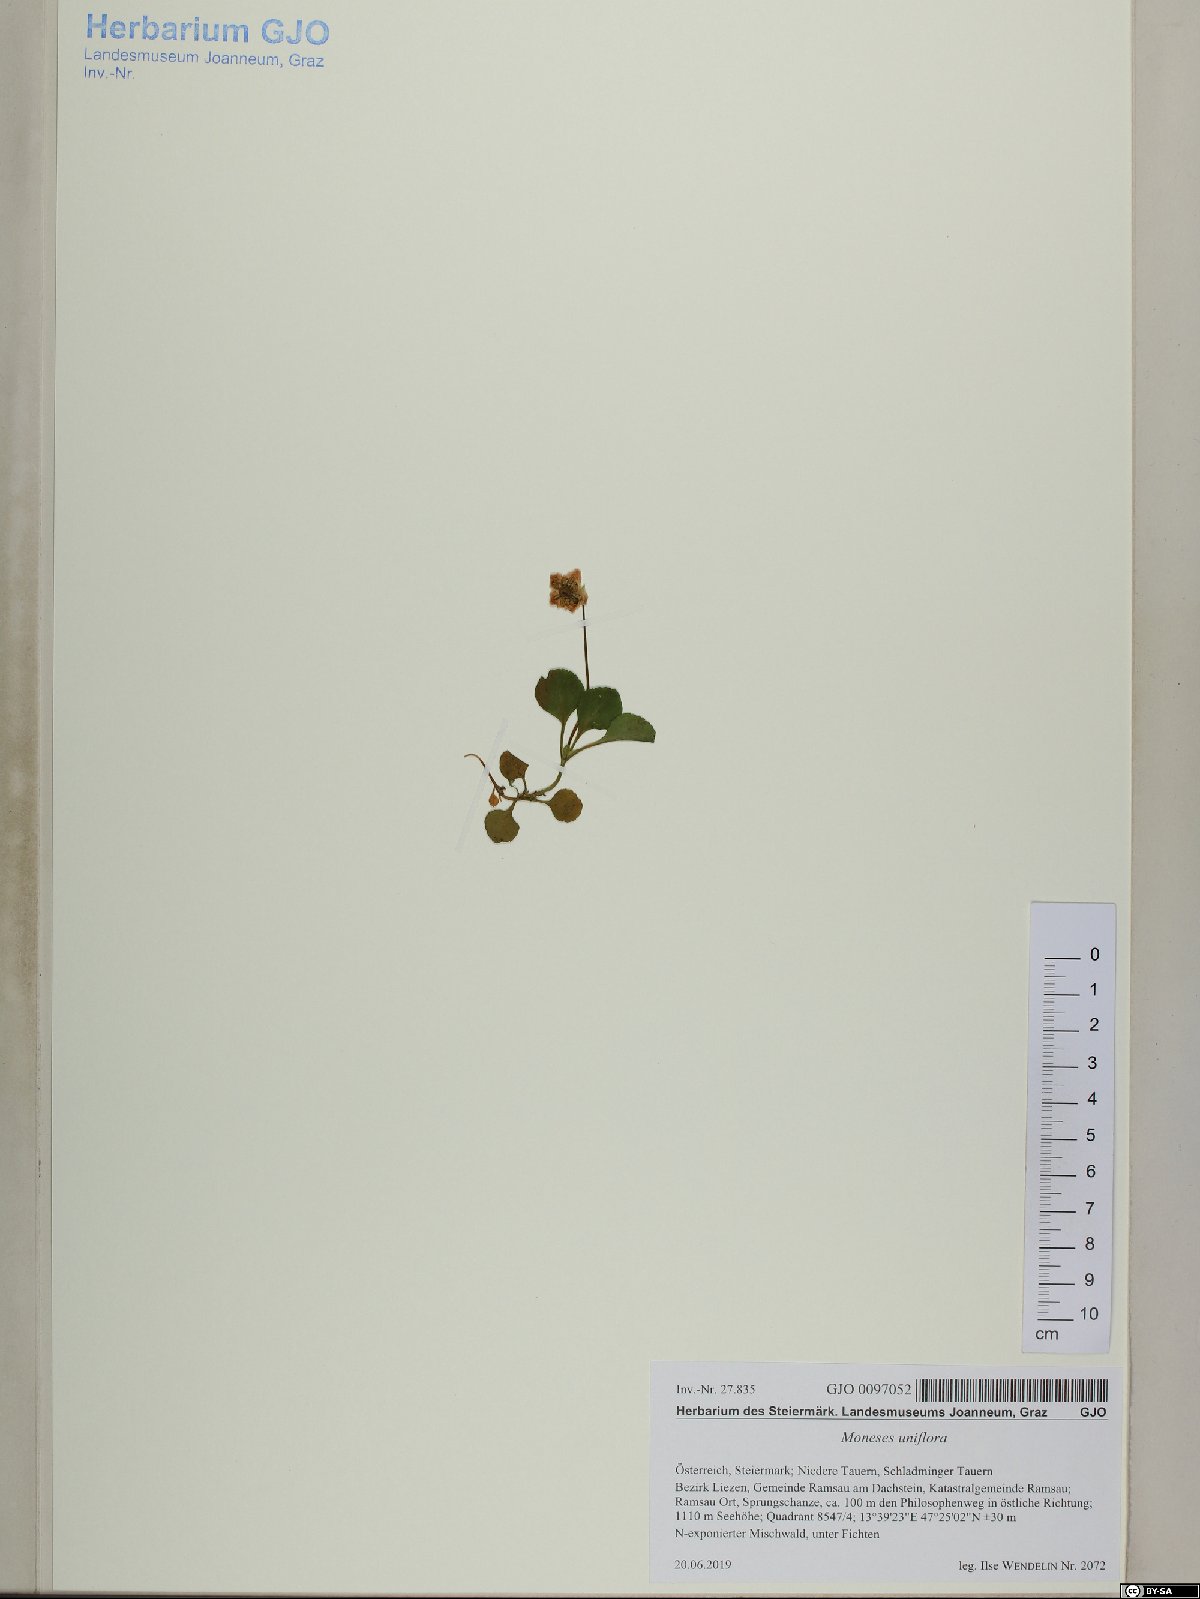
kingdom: Plantae
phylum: Tracheophyta
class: Magnoliopsida
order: Ericales
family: Ericaceae
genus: Moneses
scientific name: Moneses uniflora
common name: One-flowered wintergreen
